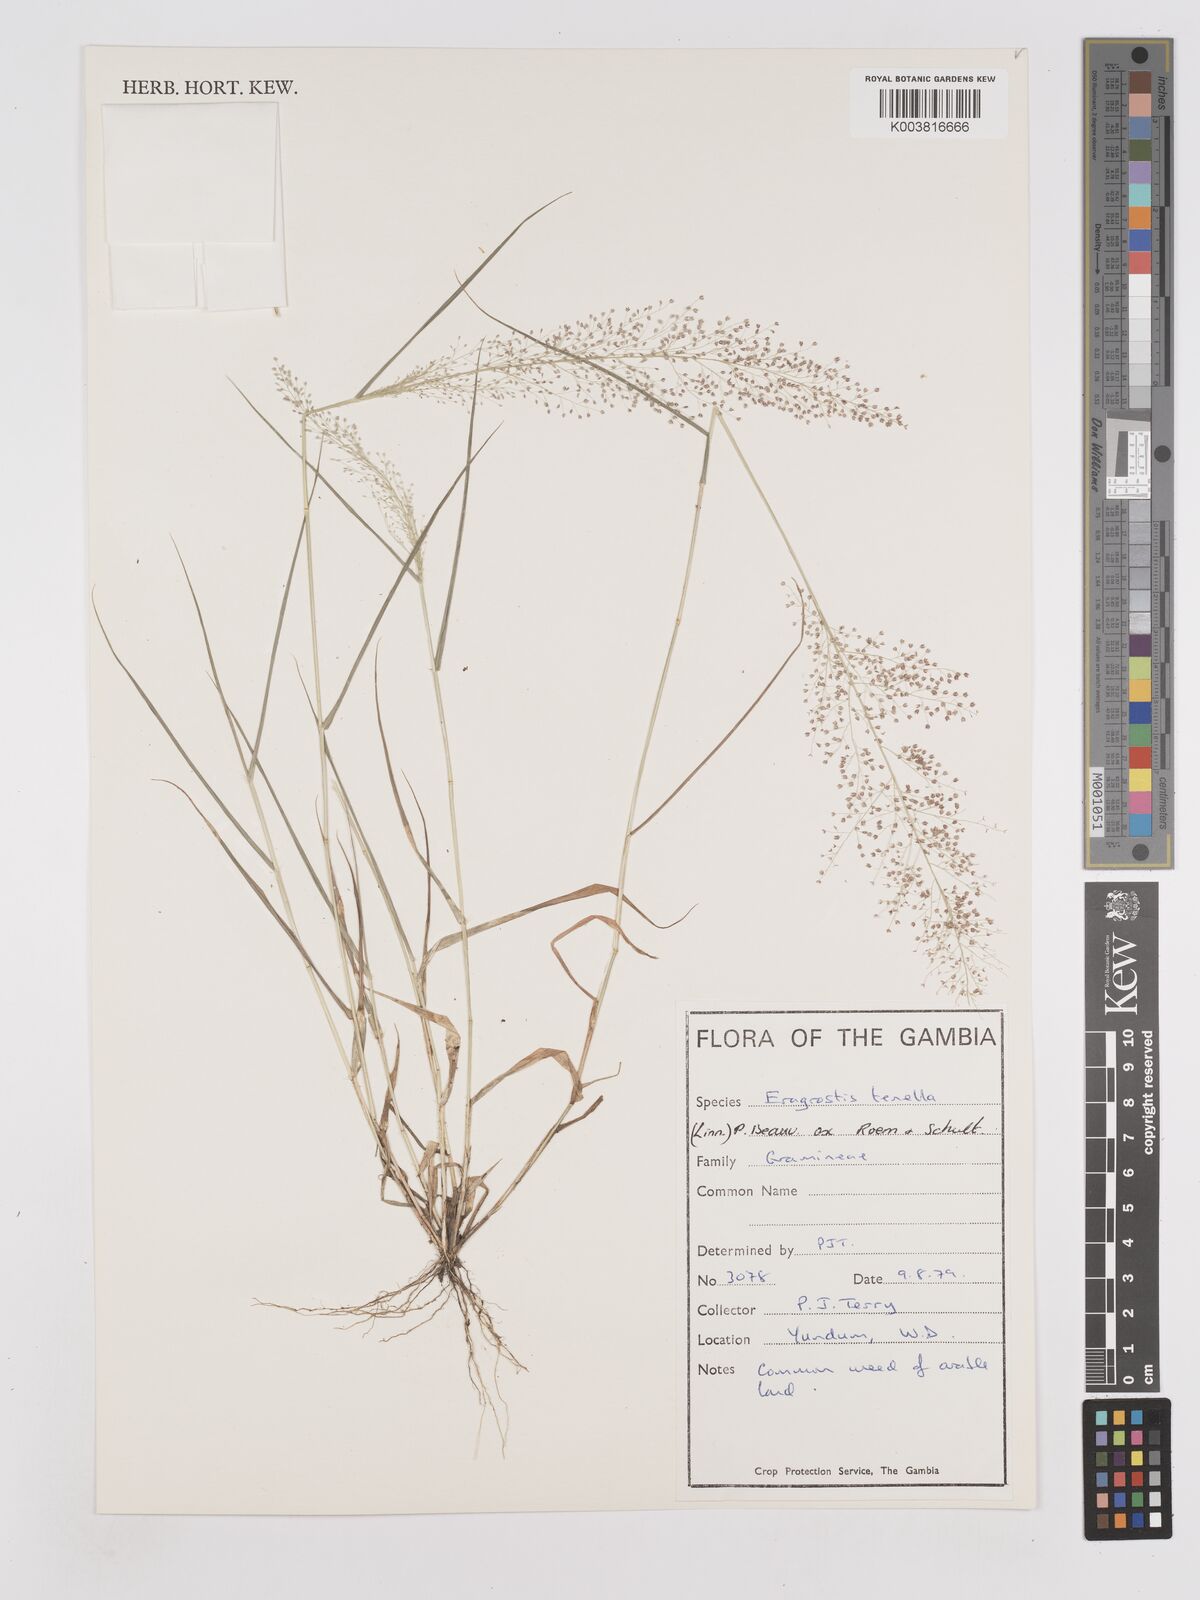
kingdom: Plantae
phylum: Tracheophyta
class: Liliopsida
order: Poales
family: Poaceae
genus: Eragrostis
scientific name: Eragrostis tenella
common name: Japanese lovegrass
